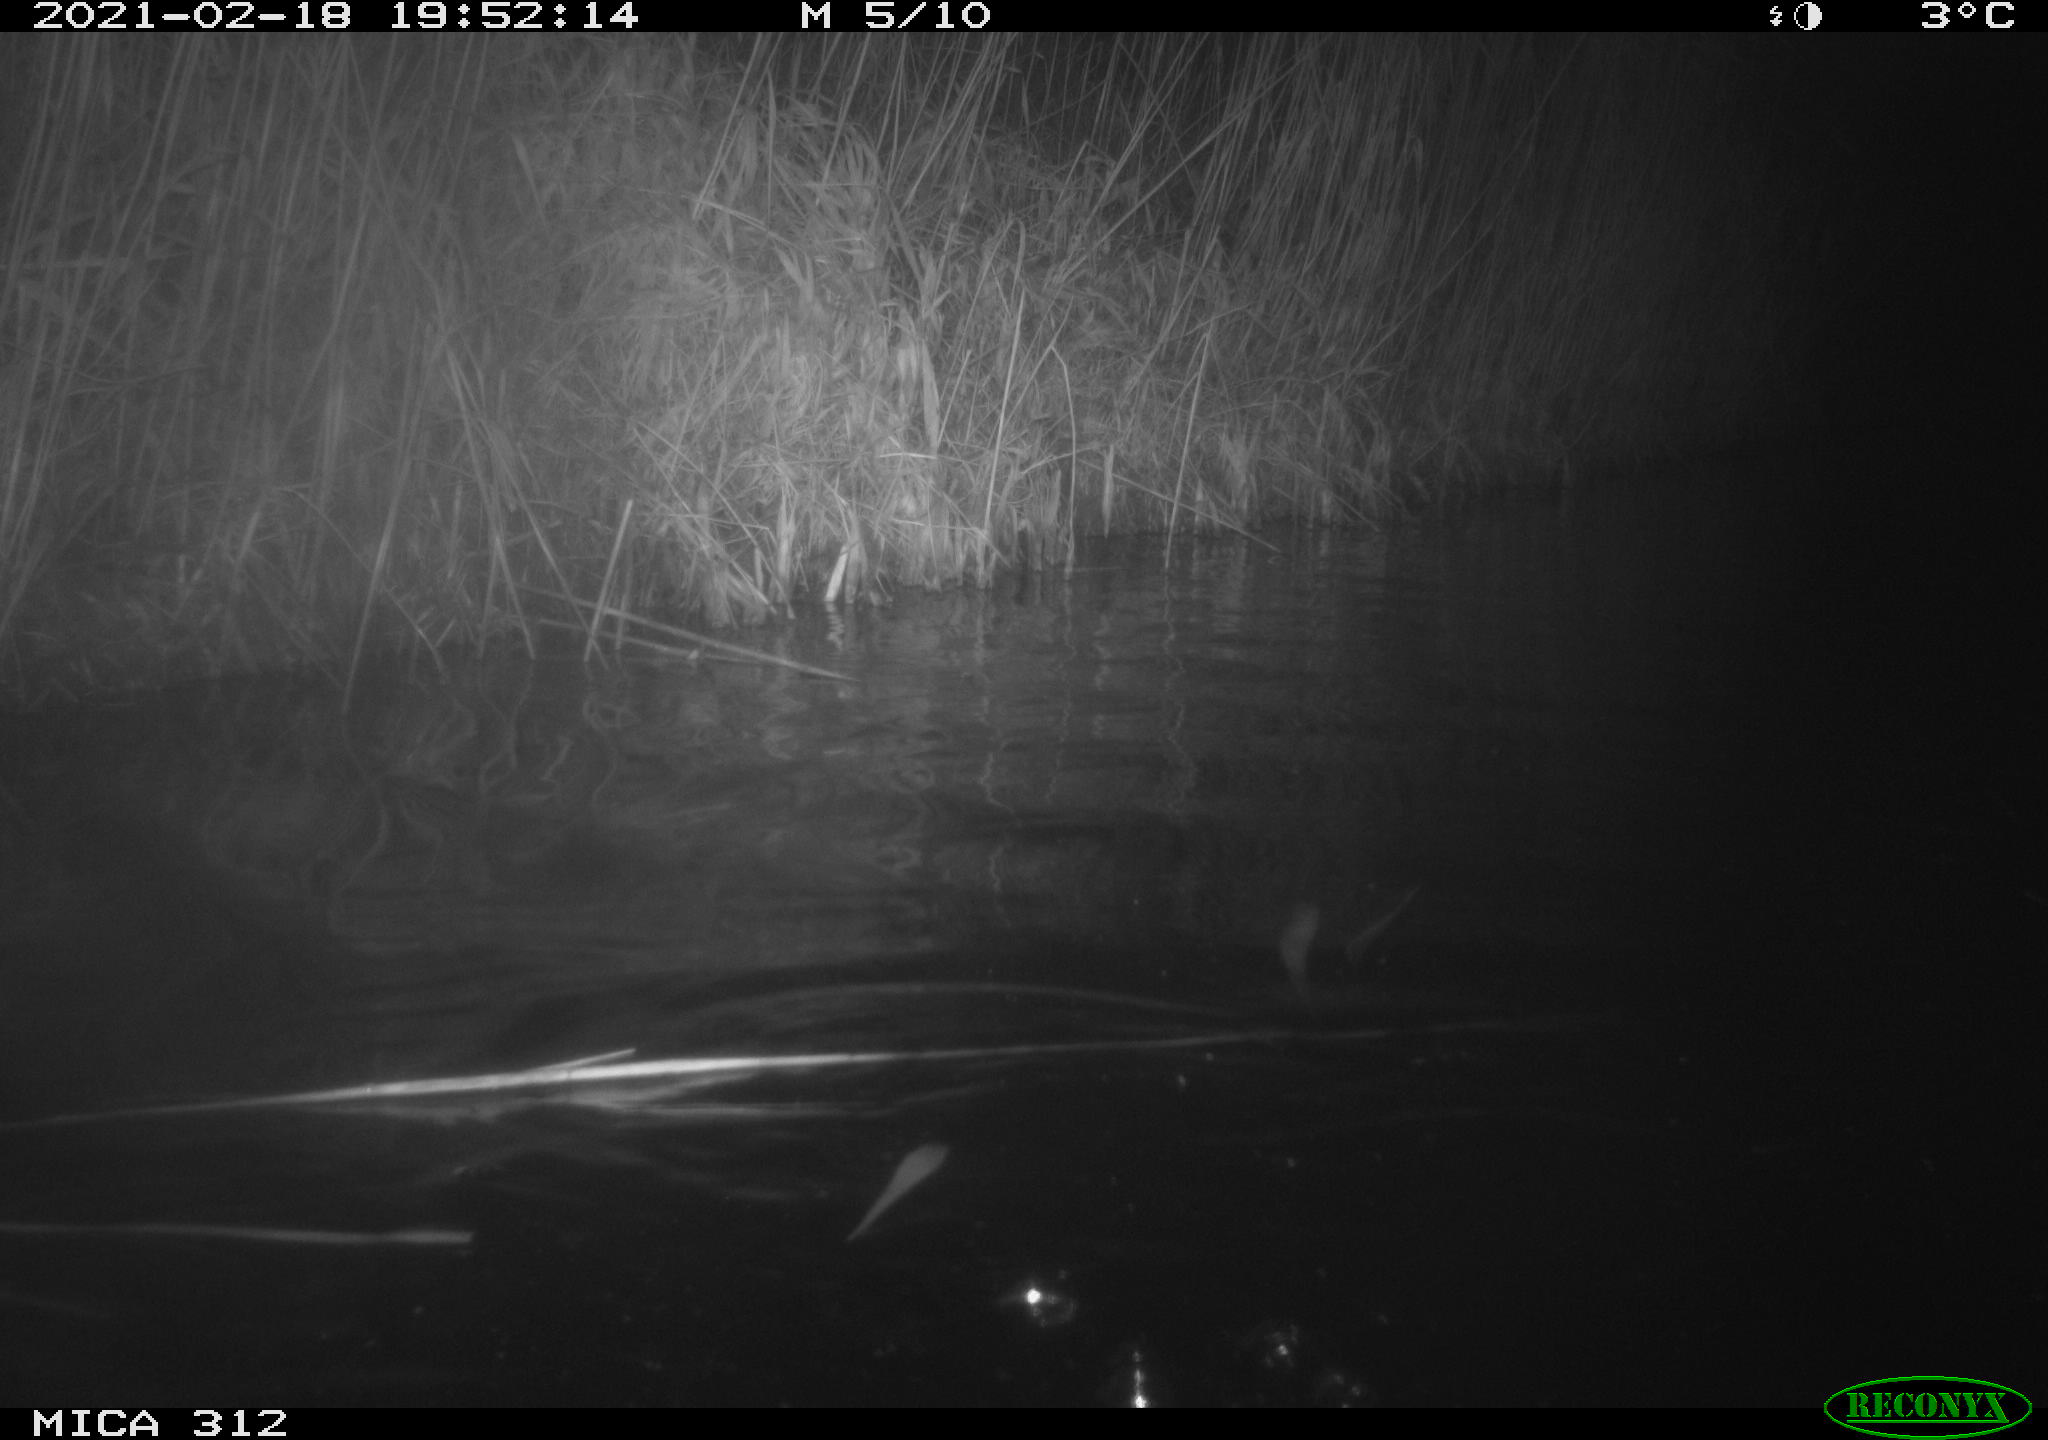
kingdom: Animalia
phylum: Chordata
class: Mammalia
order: Rodentia
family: Cricetidae
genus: Ondatra
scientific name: Ondatra zibethicus
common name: Muskrat
